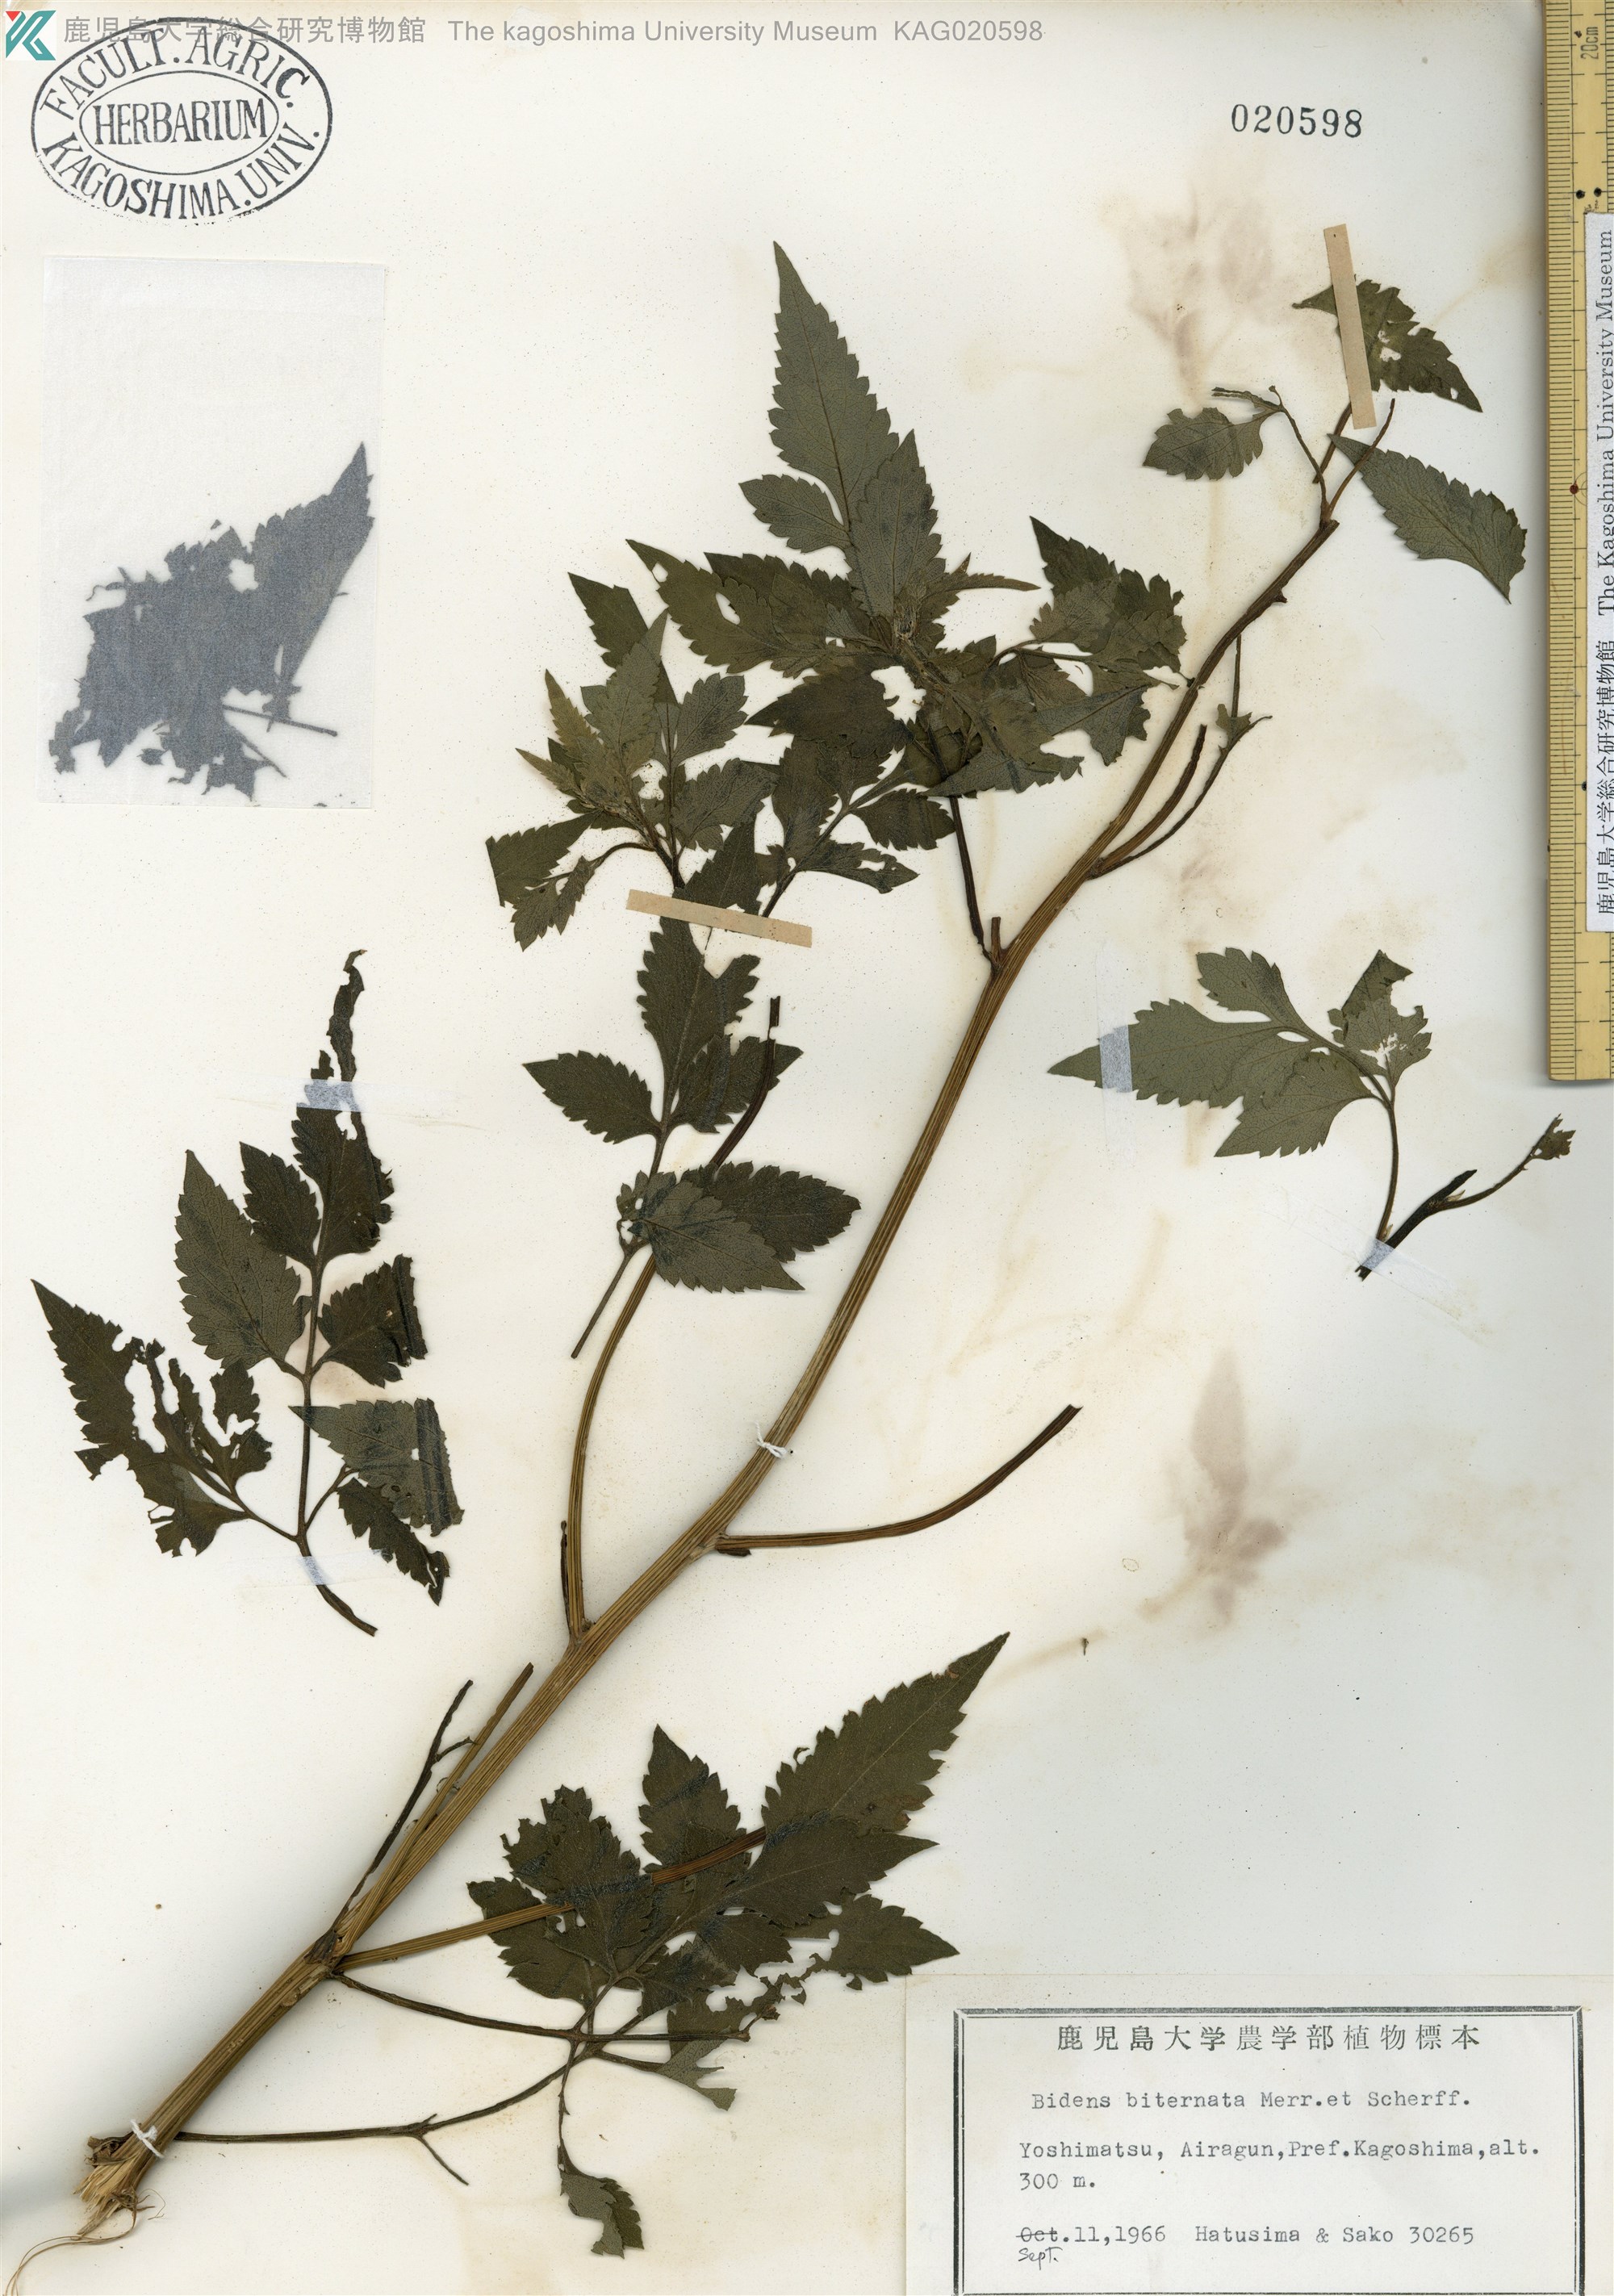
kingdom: Plantae
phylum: Tracheophyta
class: Magnoliopsida
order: Asterales
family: Asteraceae
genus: Bidens
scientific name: Bidens biternata
